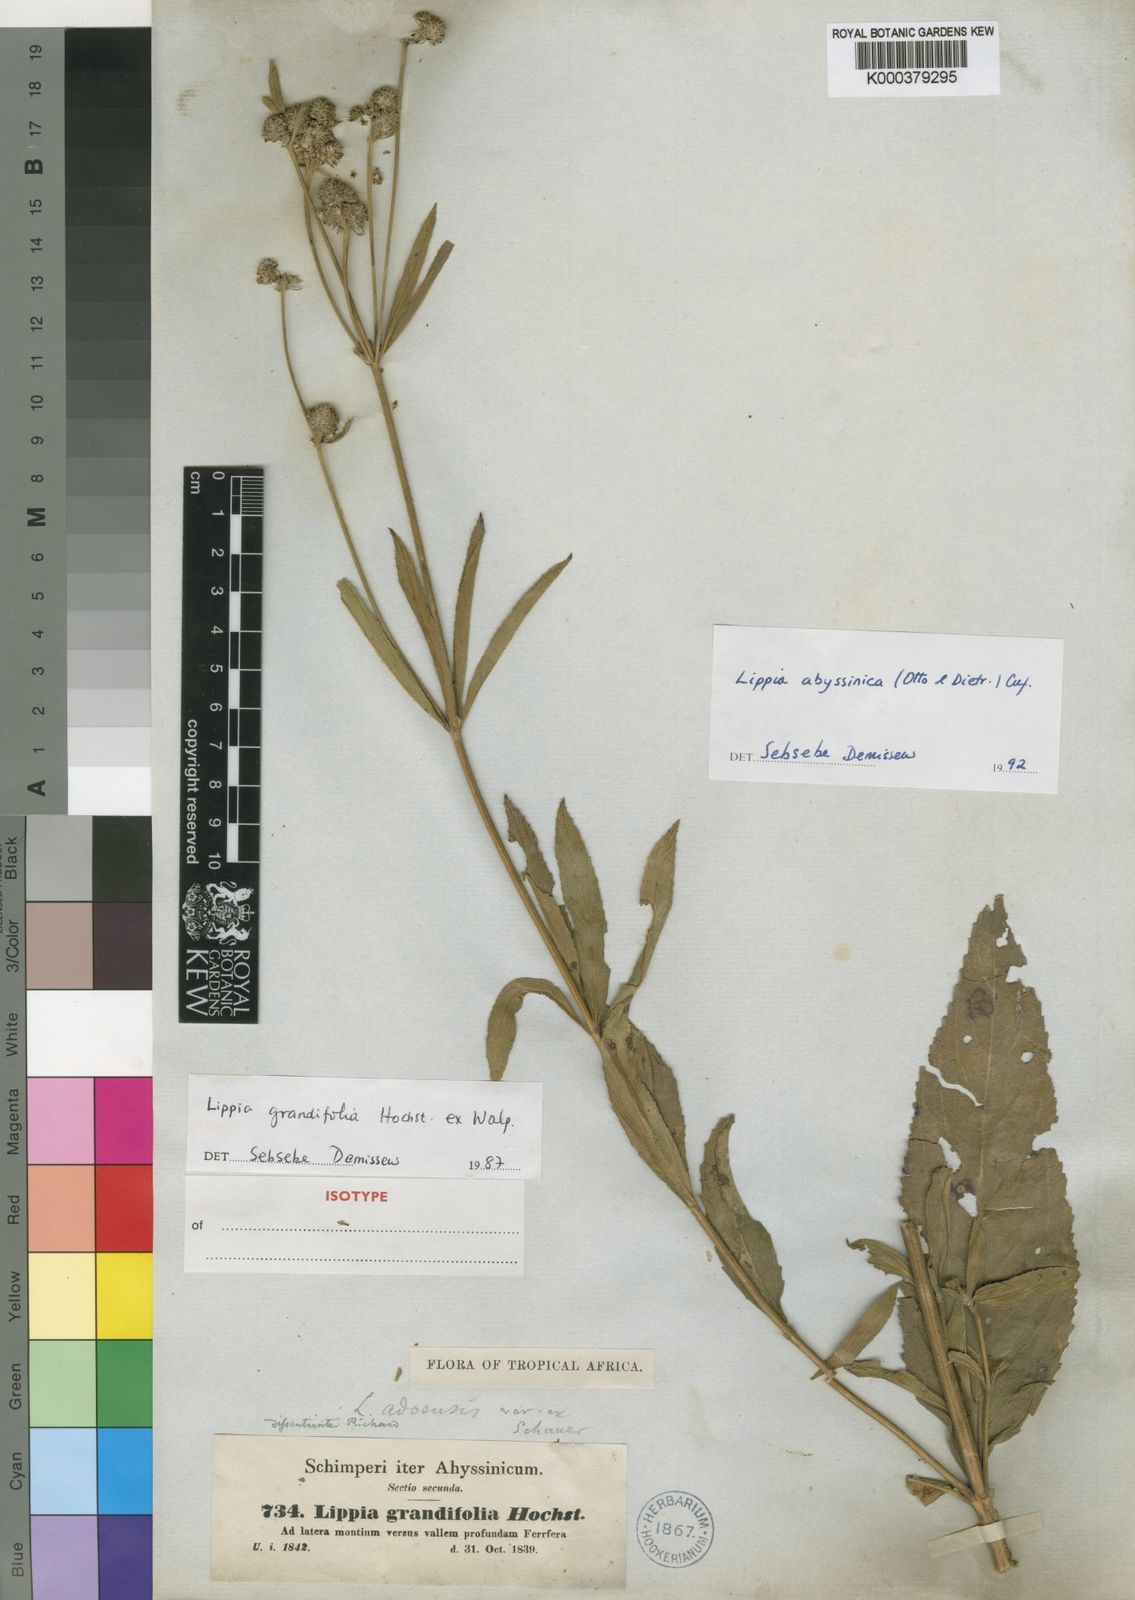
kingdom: Plantae
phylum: Tracheophyta
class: Magnoliopsida
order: Lamiales
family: Verbenaceae
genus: Lippia
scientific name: Lippia
